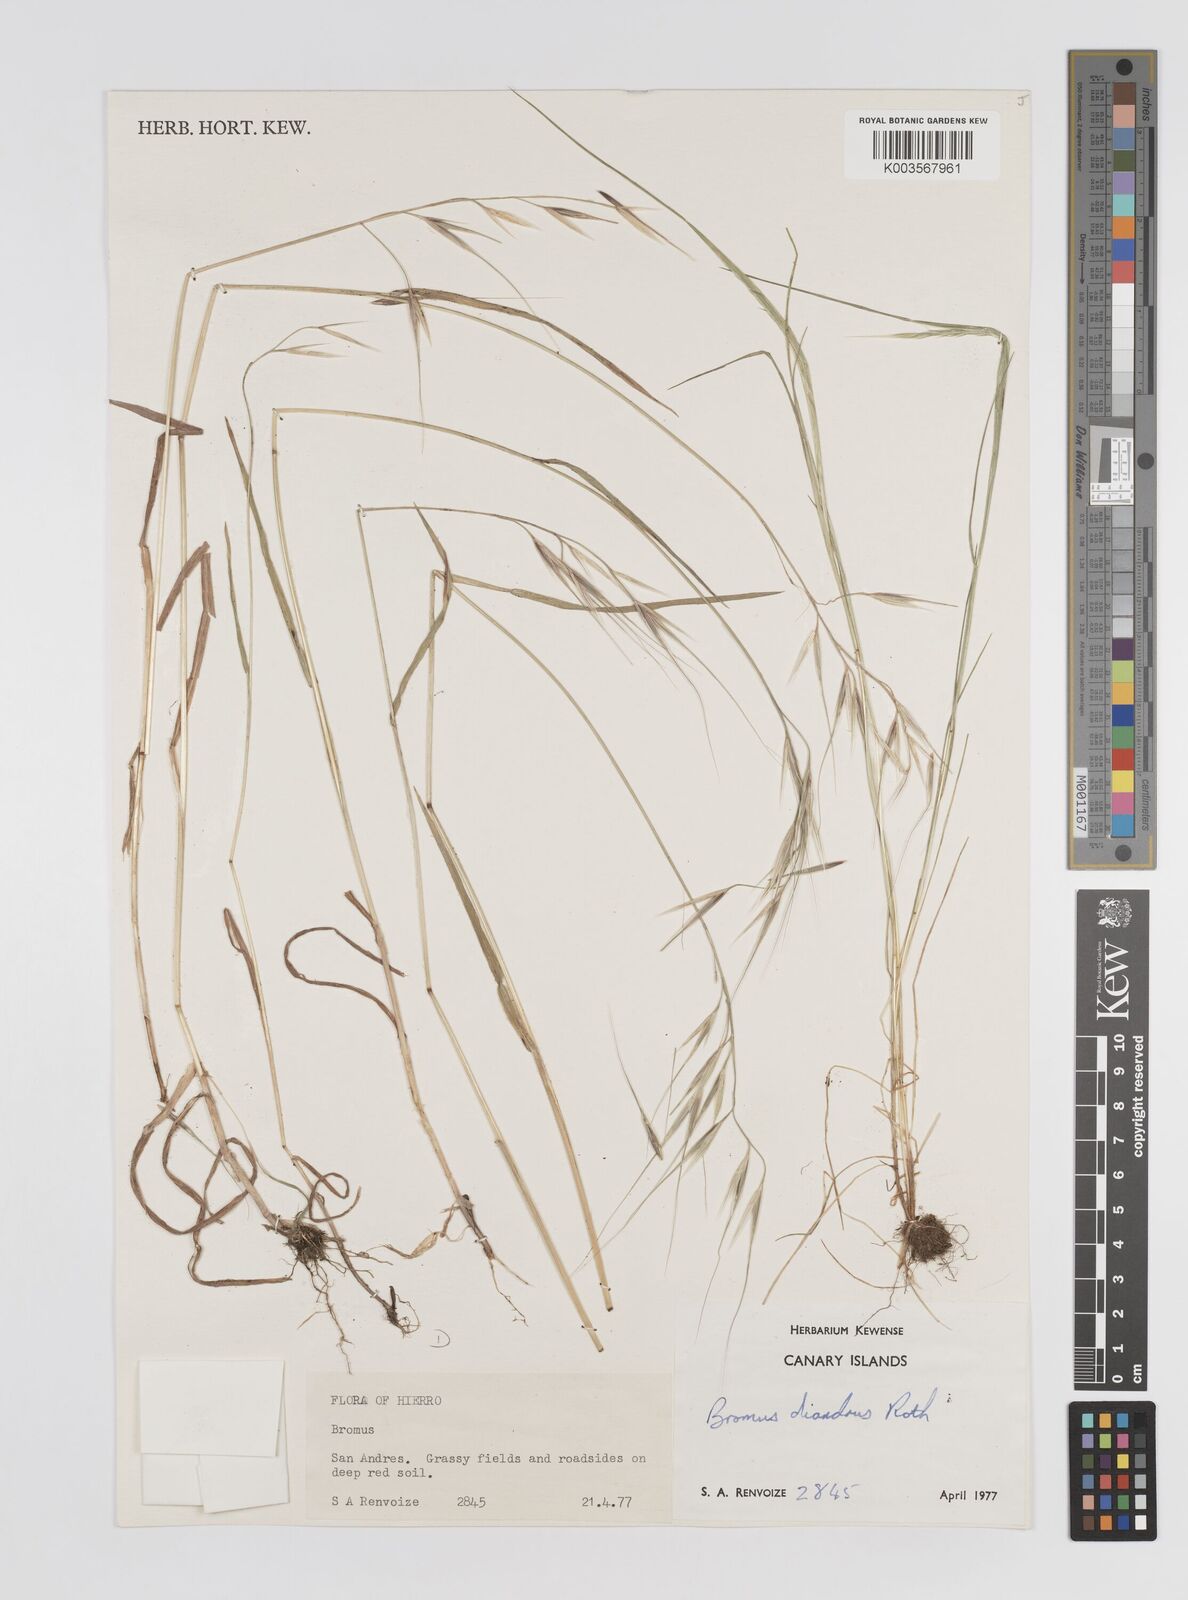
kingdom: Plantae
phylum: Tracheophyta
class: Liliopsida
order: Poales
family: Poaceae
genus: Bromus
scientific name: Bromus diandrus
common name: Ripgut brome
